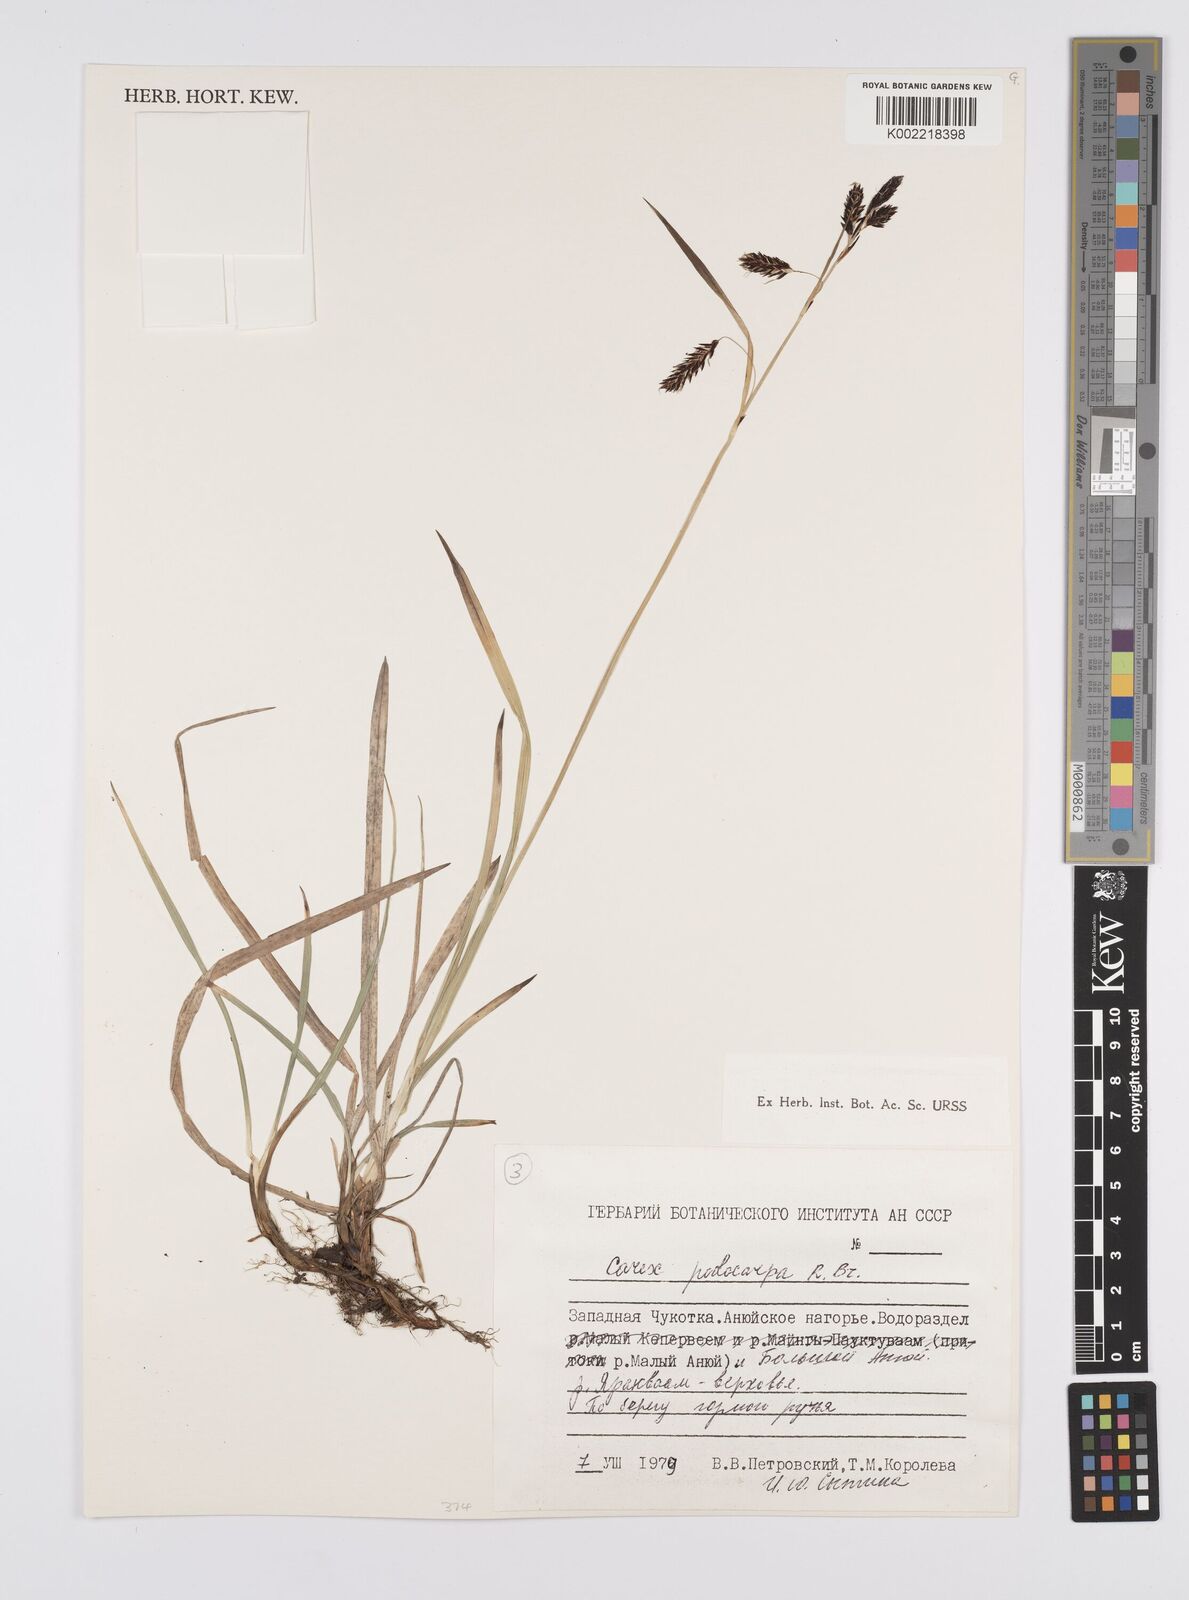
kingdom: Plantae
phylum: Tracheophyta
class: Liliopsida
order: Poales
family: Cyperaceae
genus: Carex
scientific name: Carex podocarpa
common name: Alpine sedge
